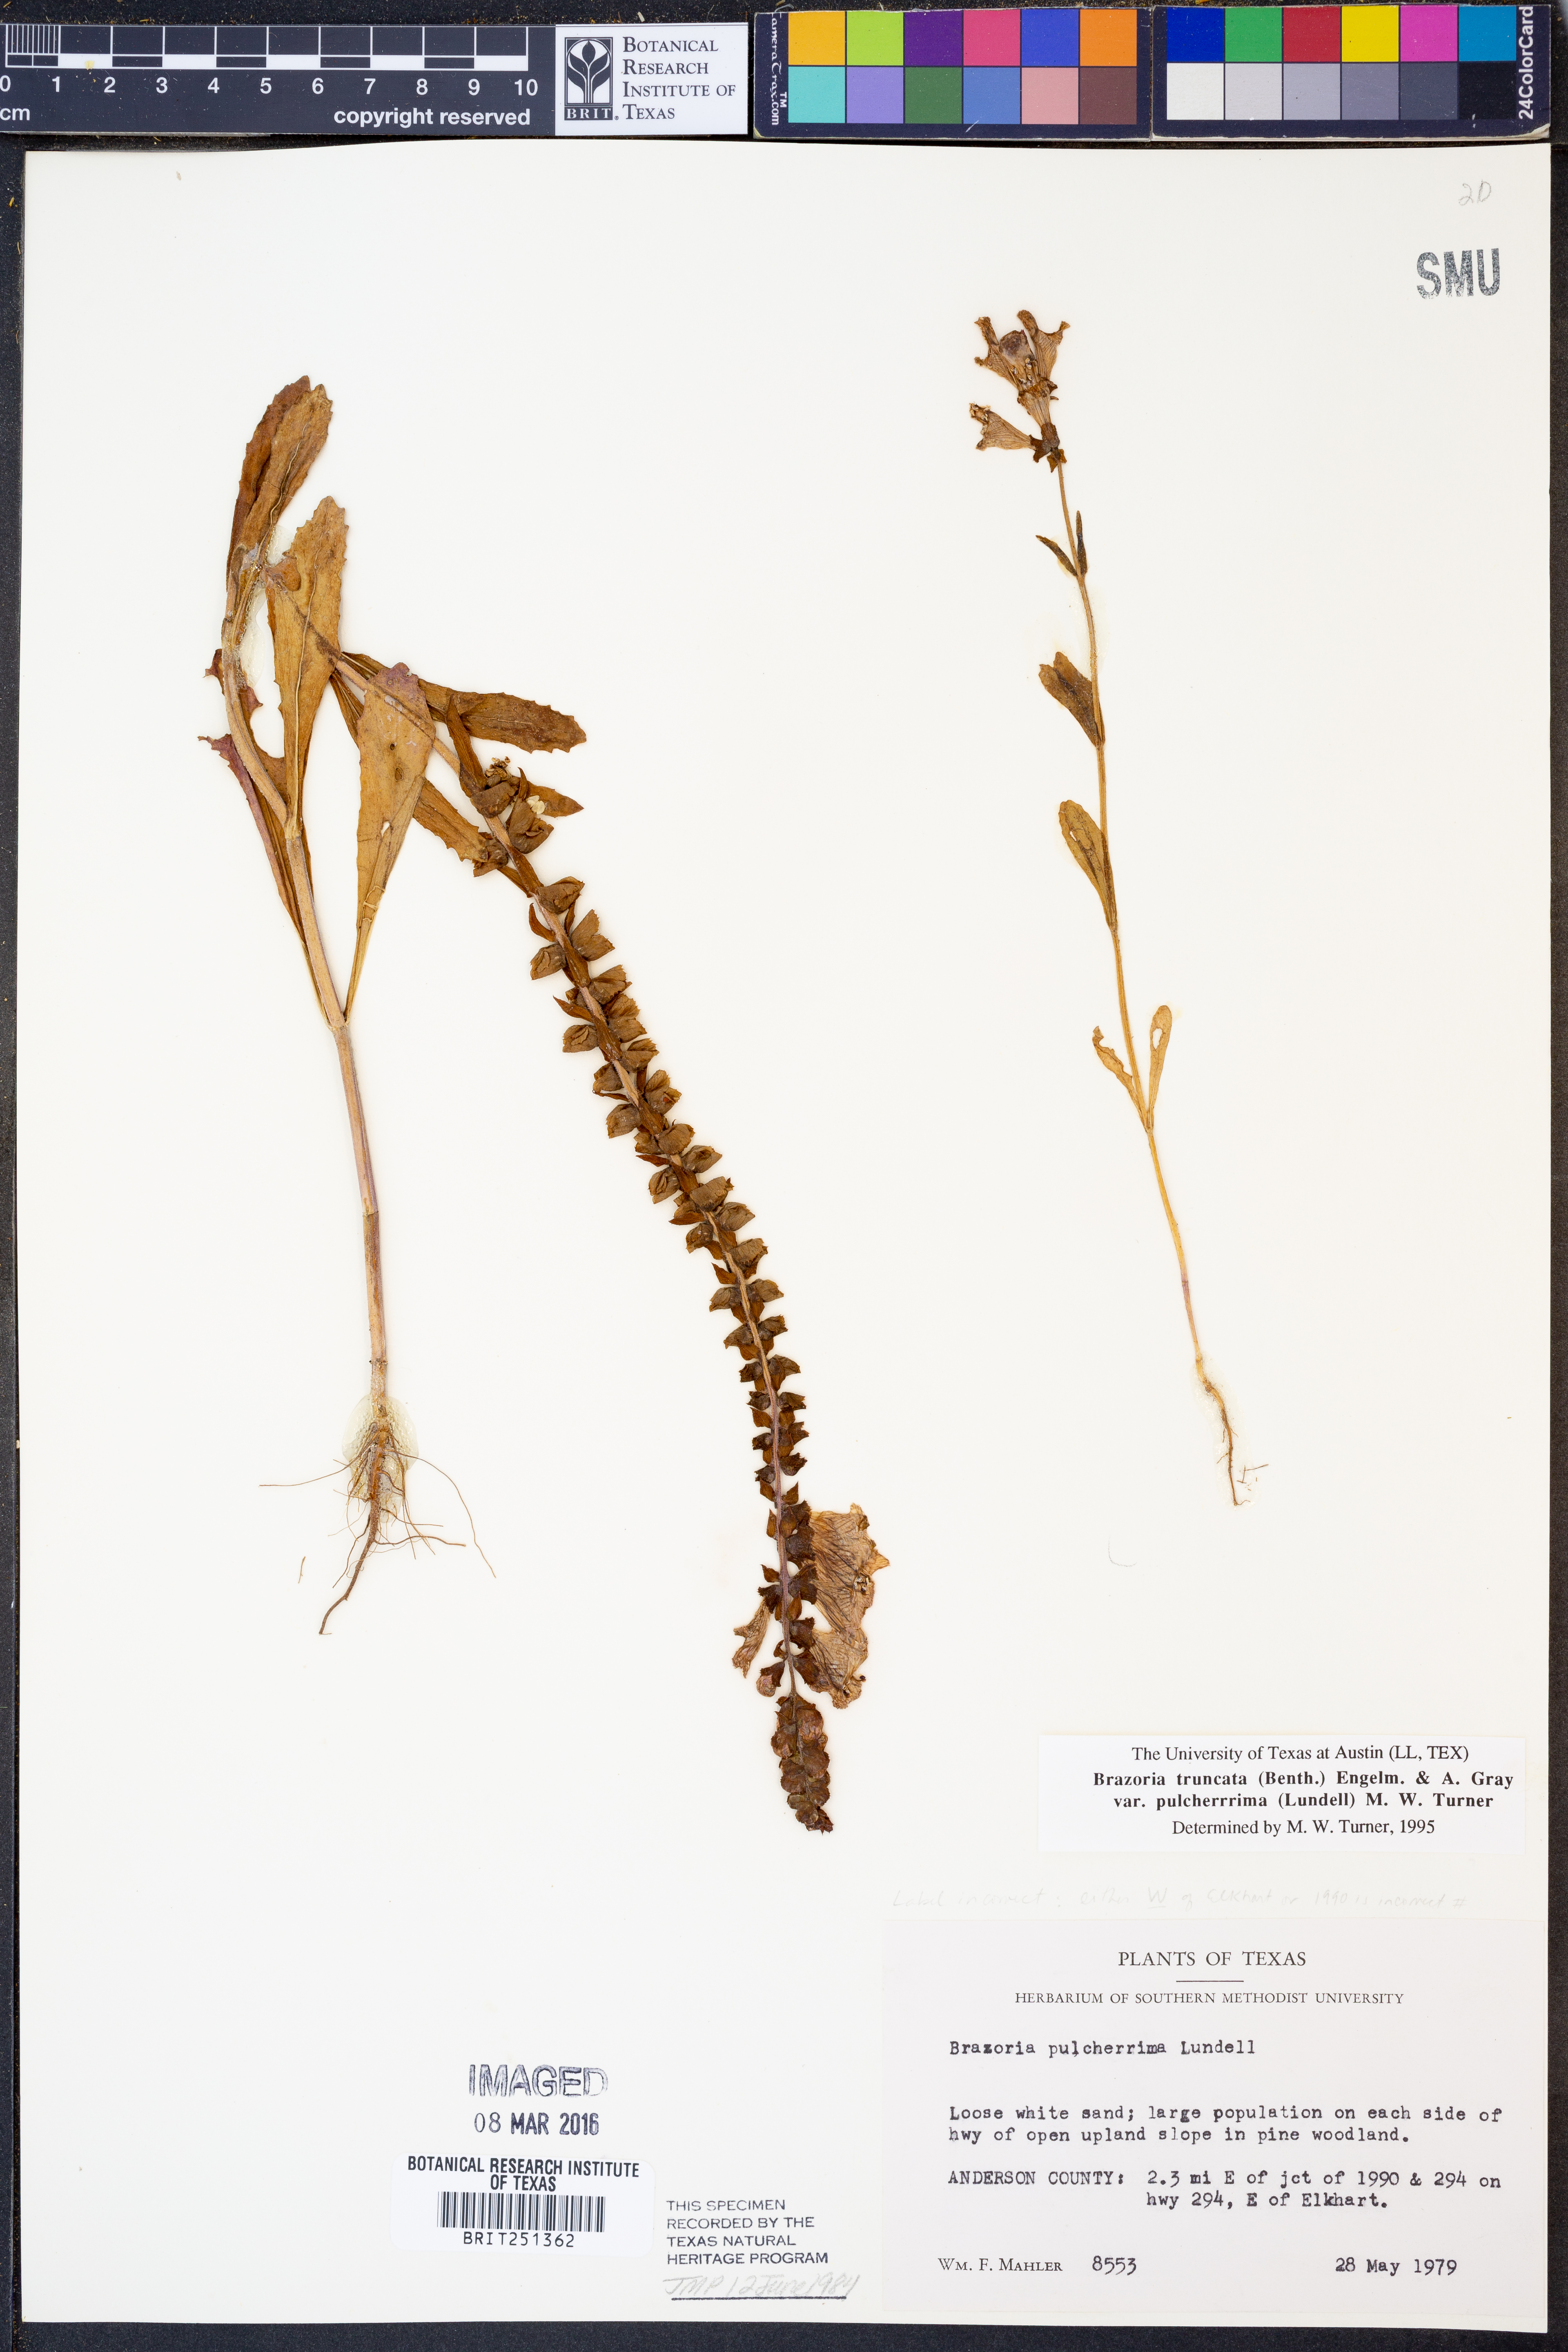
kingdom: Plantae
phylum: Tracheophyta
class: Magnoliopsida
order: Lamiales
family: Lamiaceae
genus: Brazoria
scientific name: Brazoria truncata
